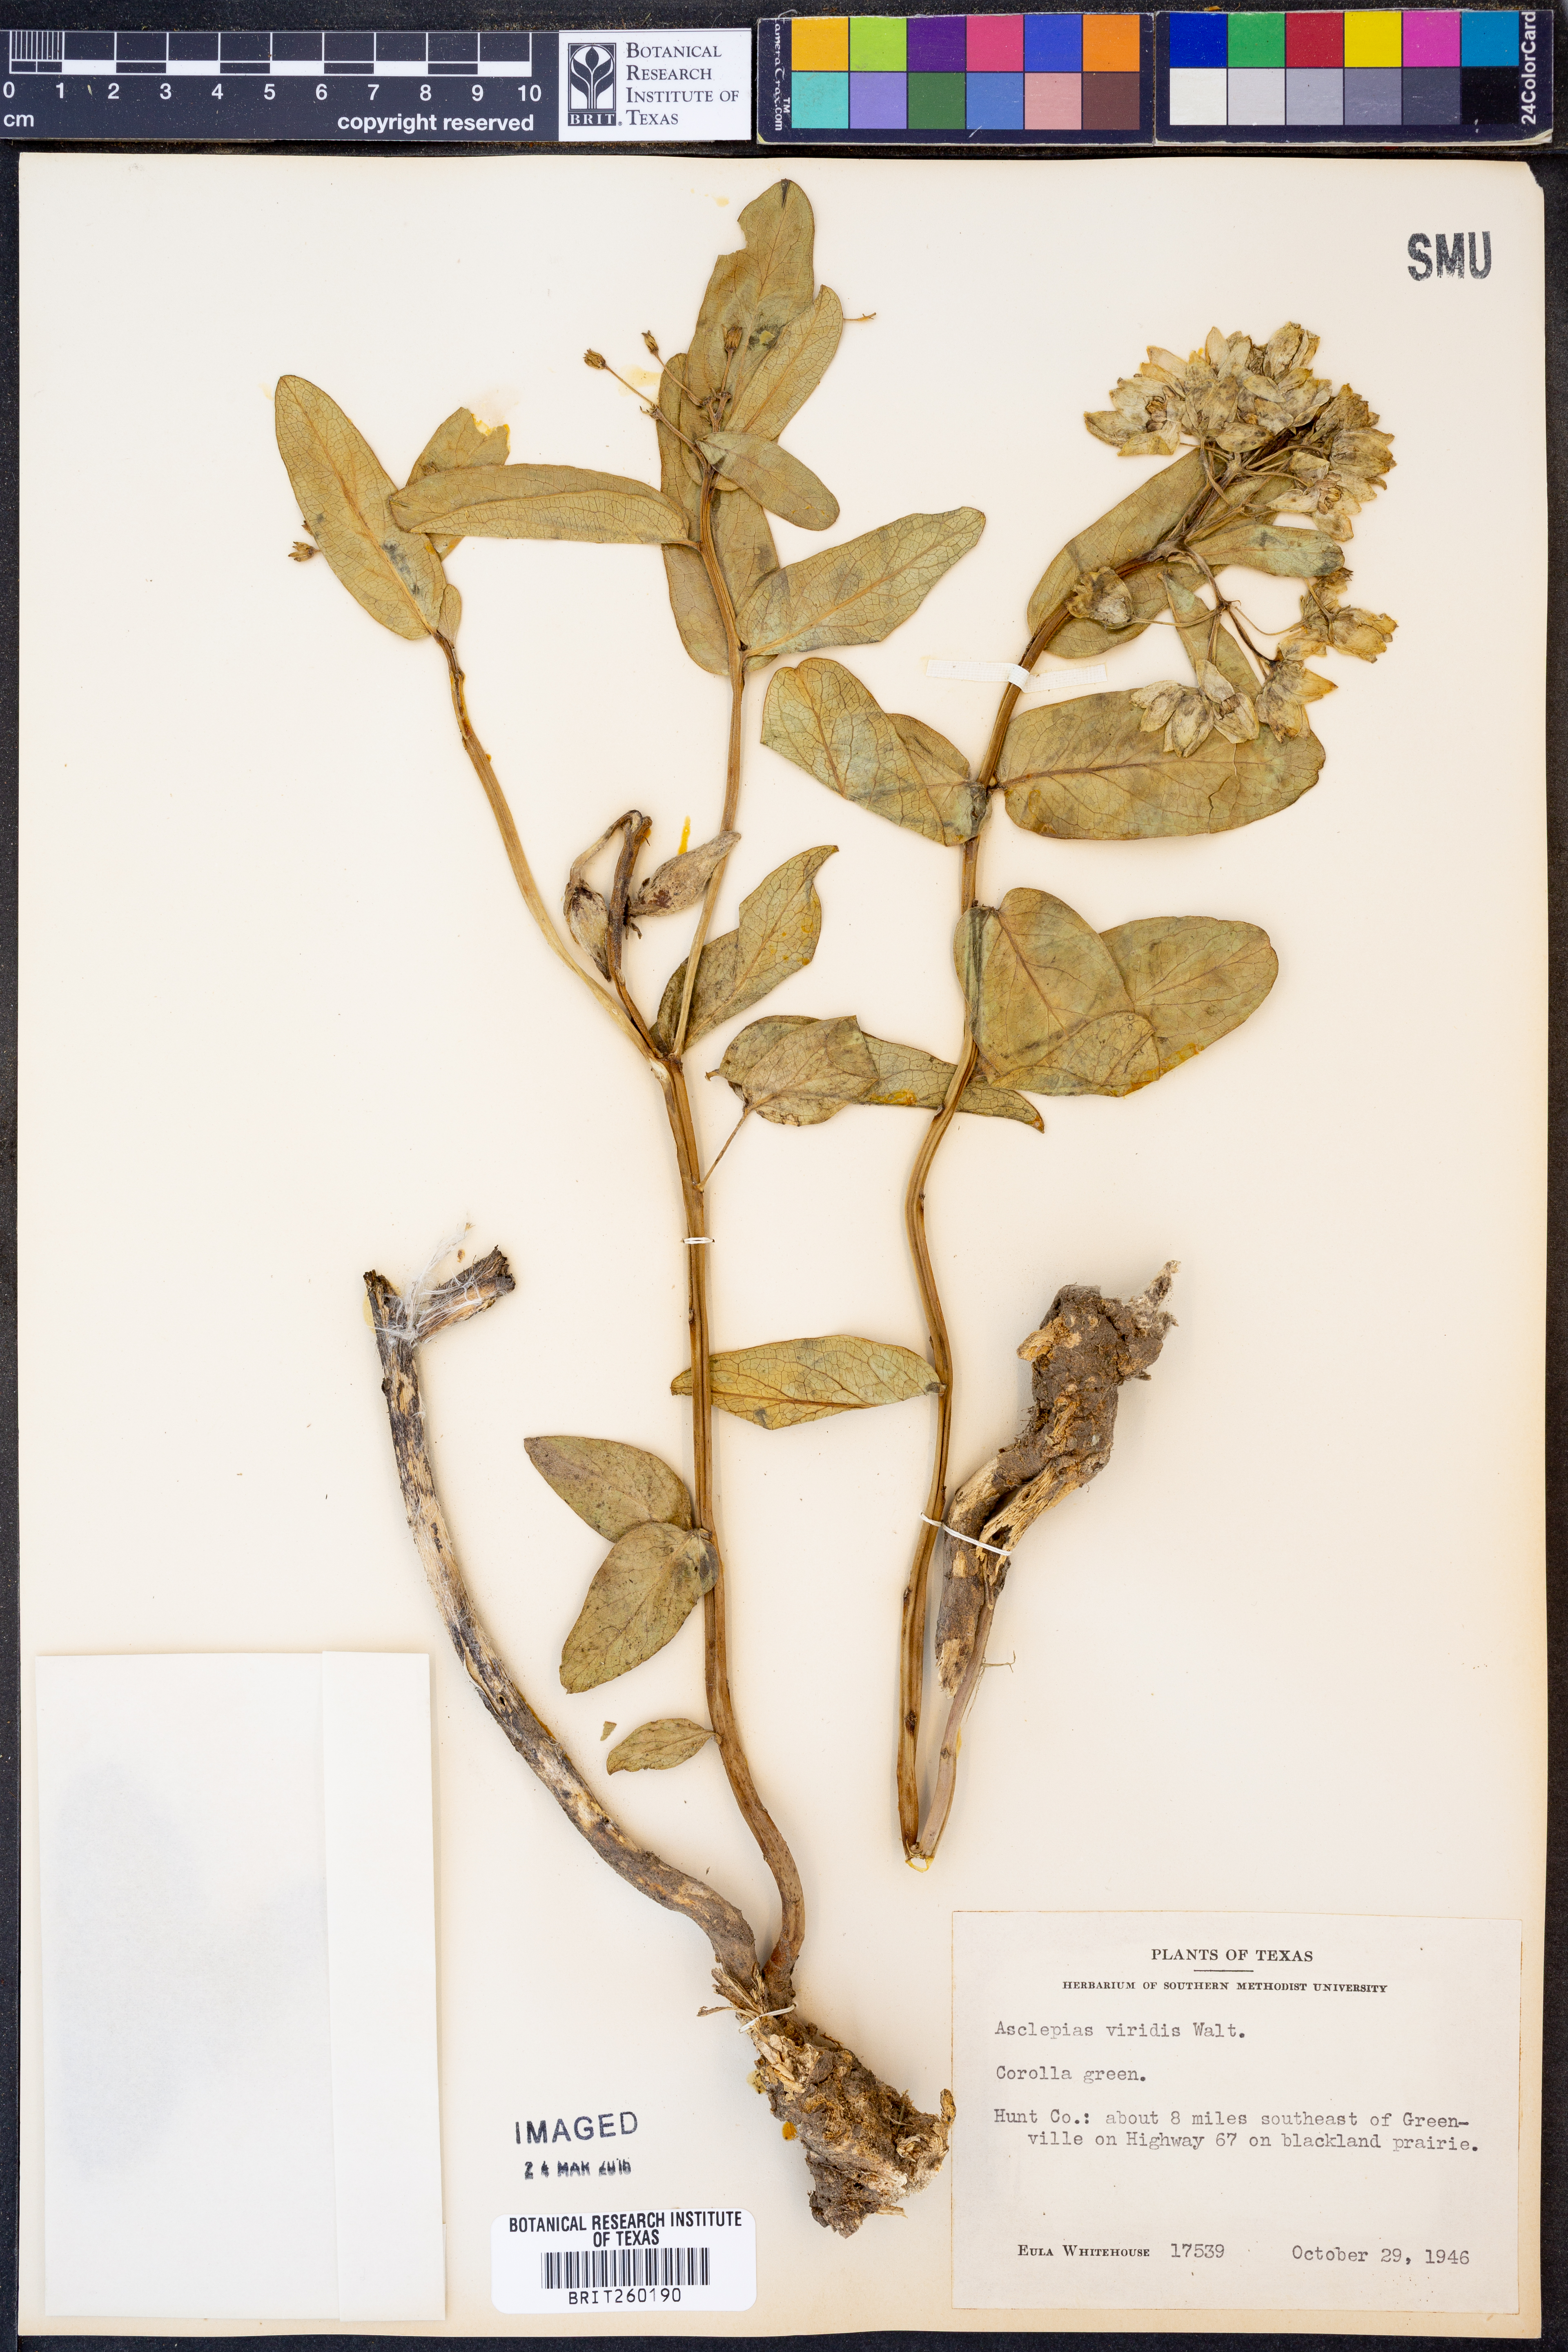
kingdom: Plantae
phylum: Tracheophyta
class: Magnoliopsida
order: Gentianales
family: Apocynaceae
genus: Asclepias
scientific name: Asclepias viridis
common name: Antelope-horns
